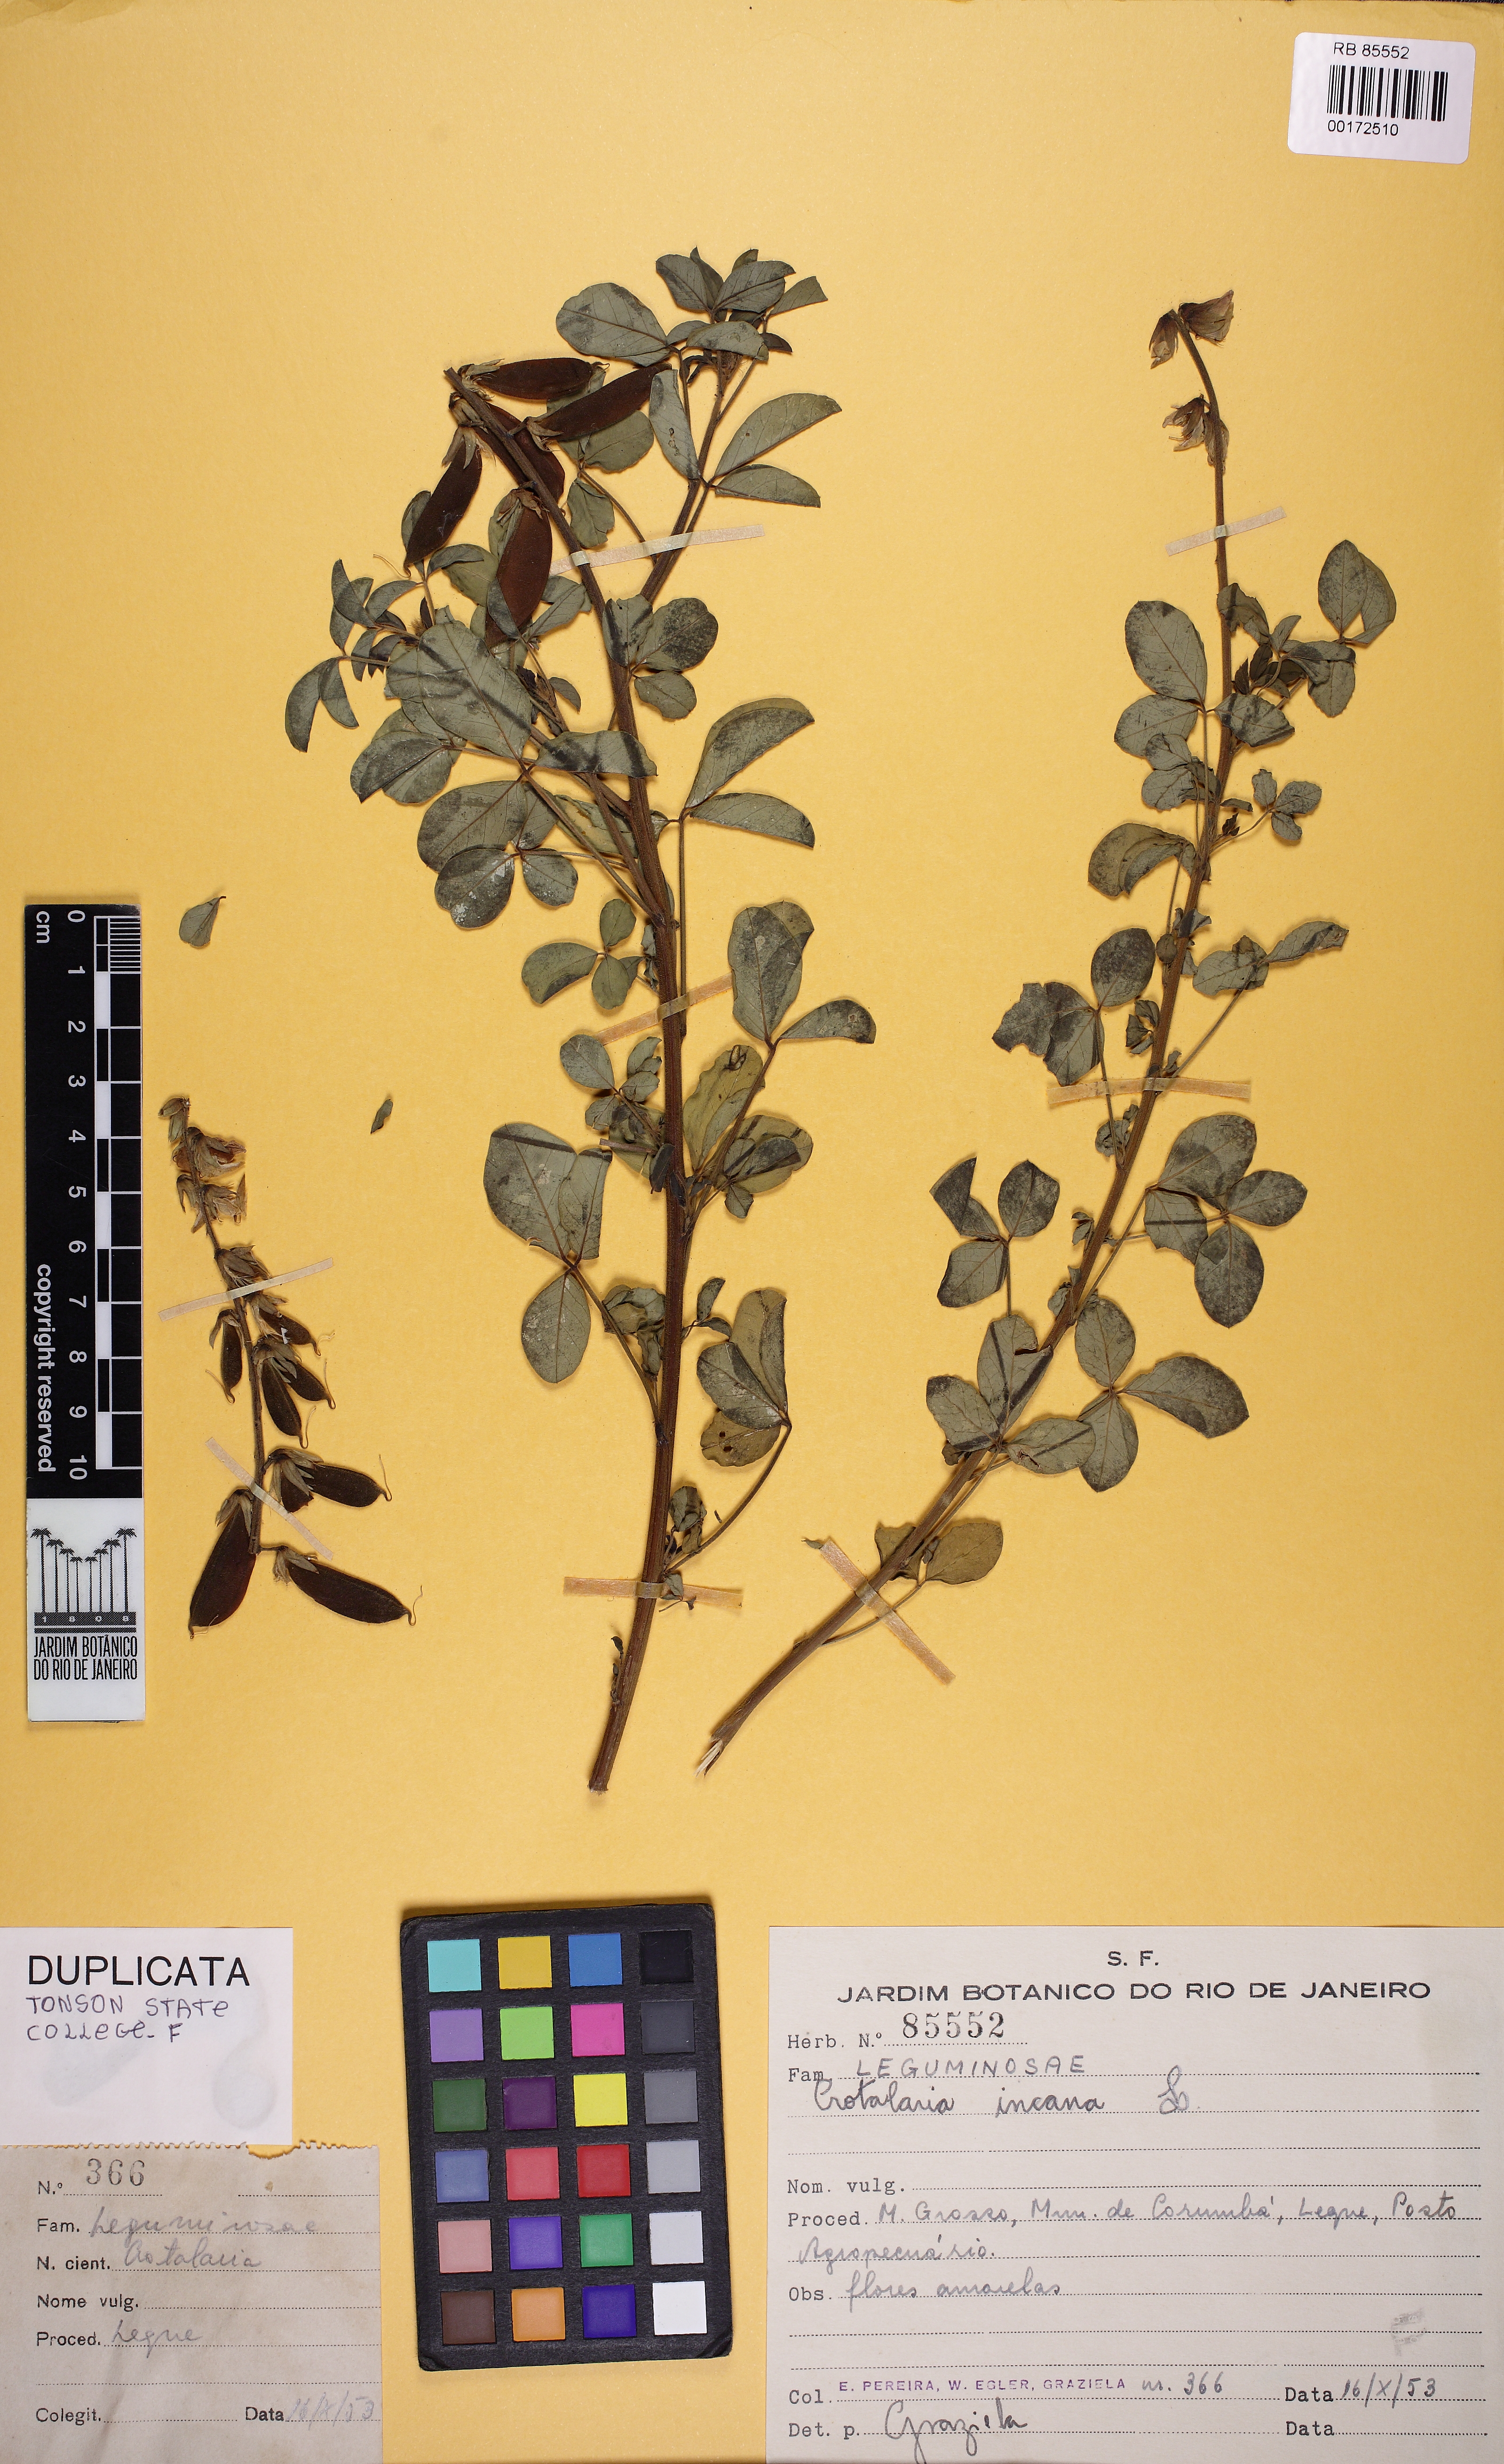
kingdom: Plantae
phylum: Tracheophyta
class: Magnoliopsida
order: Fabales
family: Fabaceae
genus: Crotalaria
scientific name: Crotalaria incana
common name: Shakeshake
